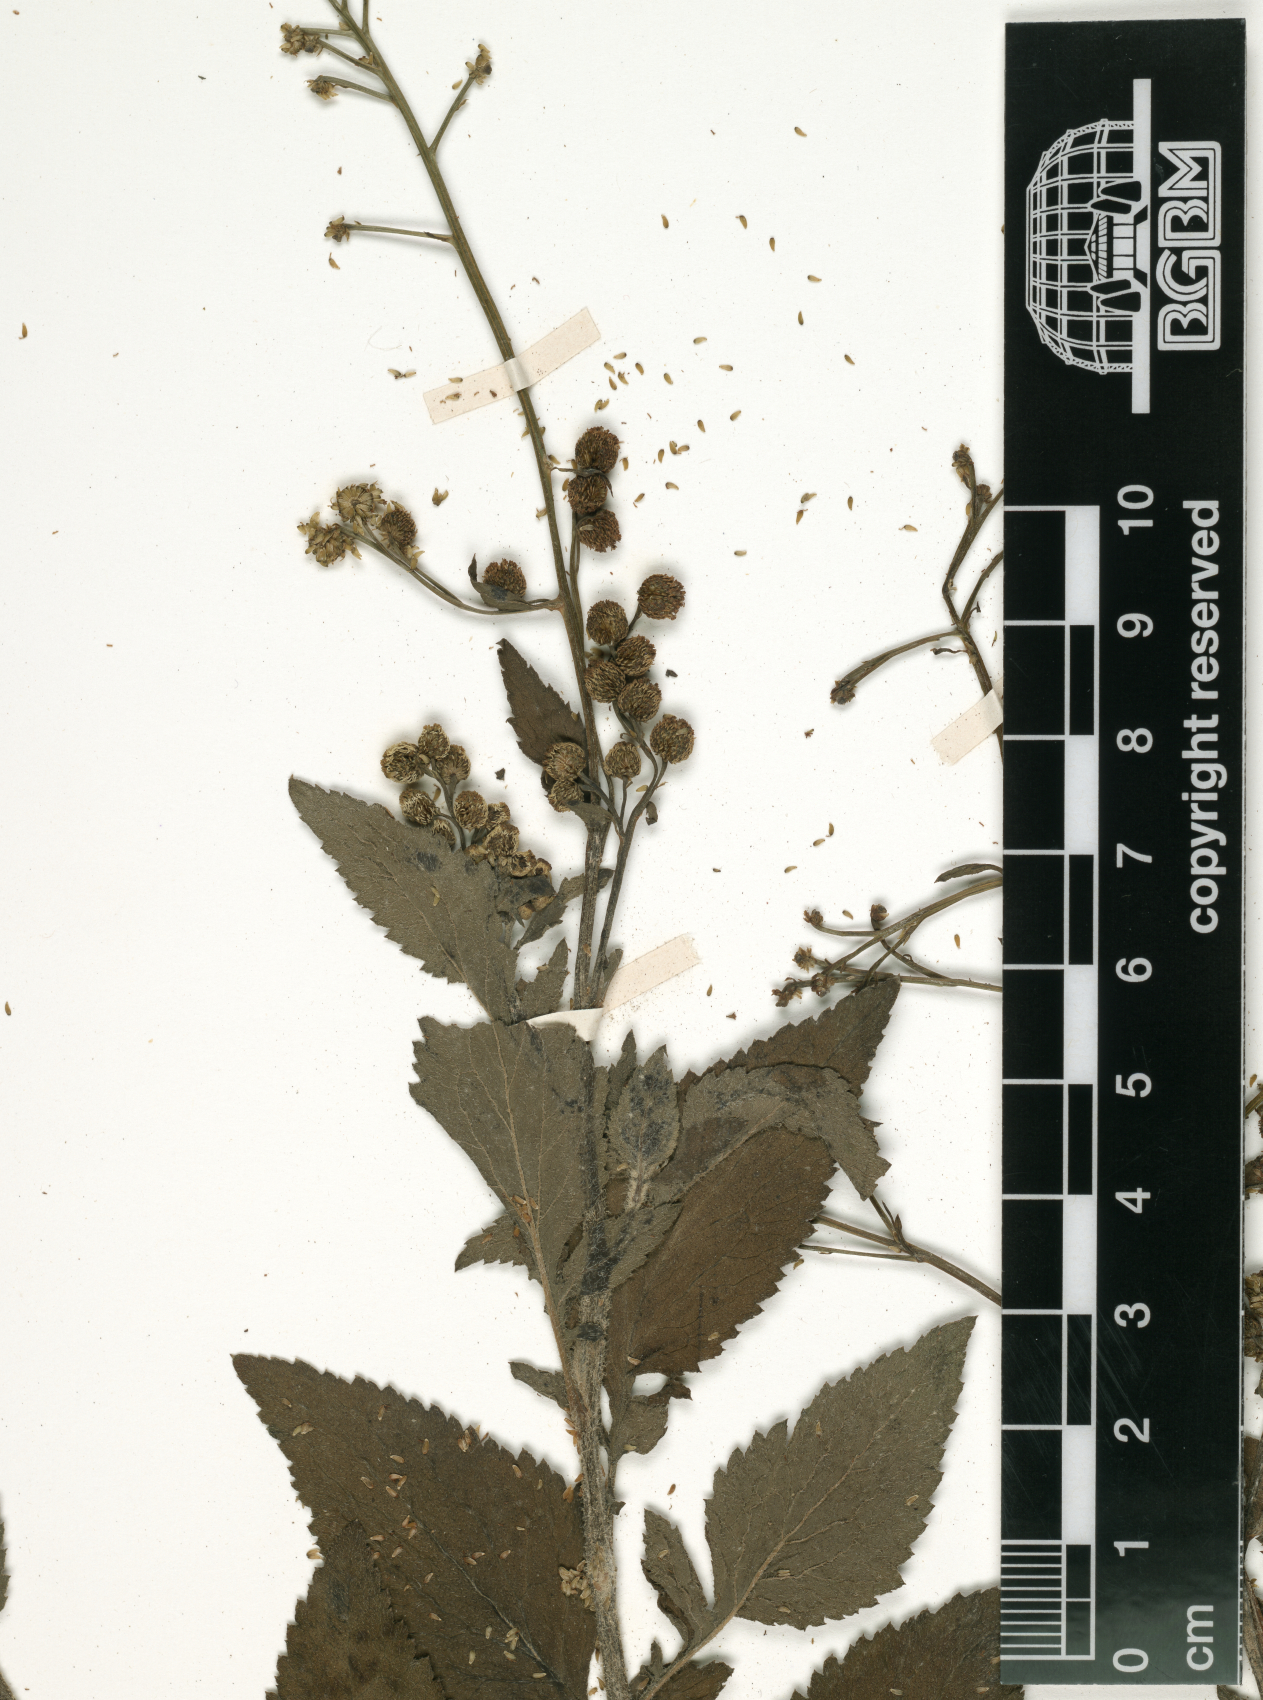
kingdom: Plantae
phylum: Tracheophyta
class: Magnoliopsida
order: Asterales
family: Asteraceae
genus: Dichrocephala
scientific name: Dichrocephala integrifolia
